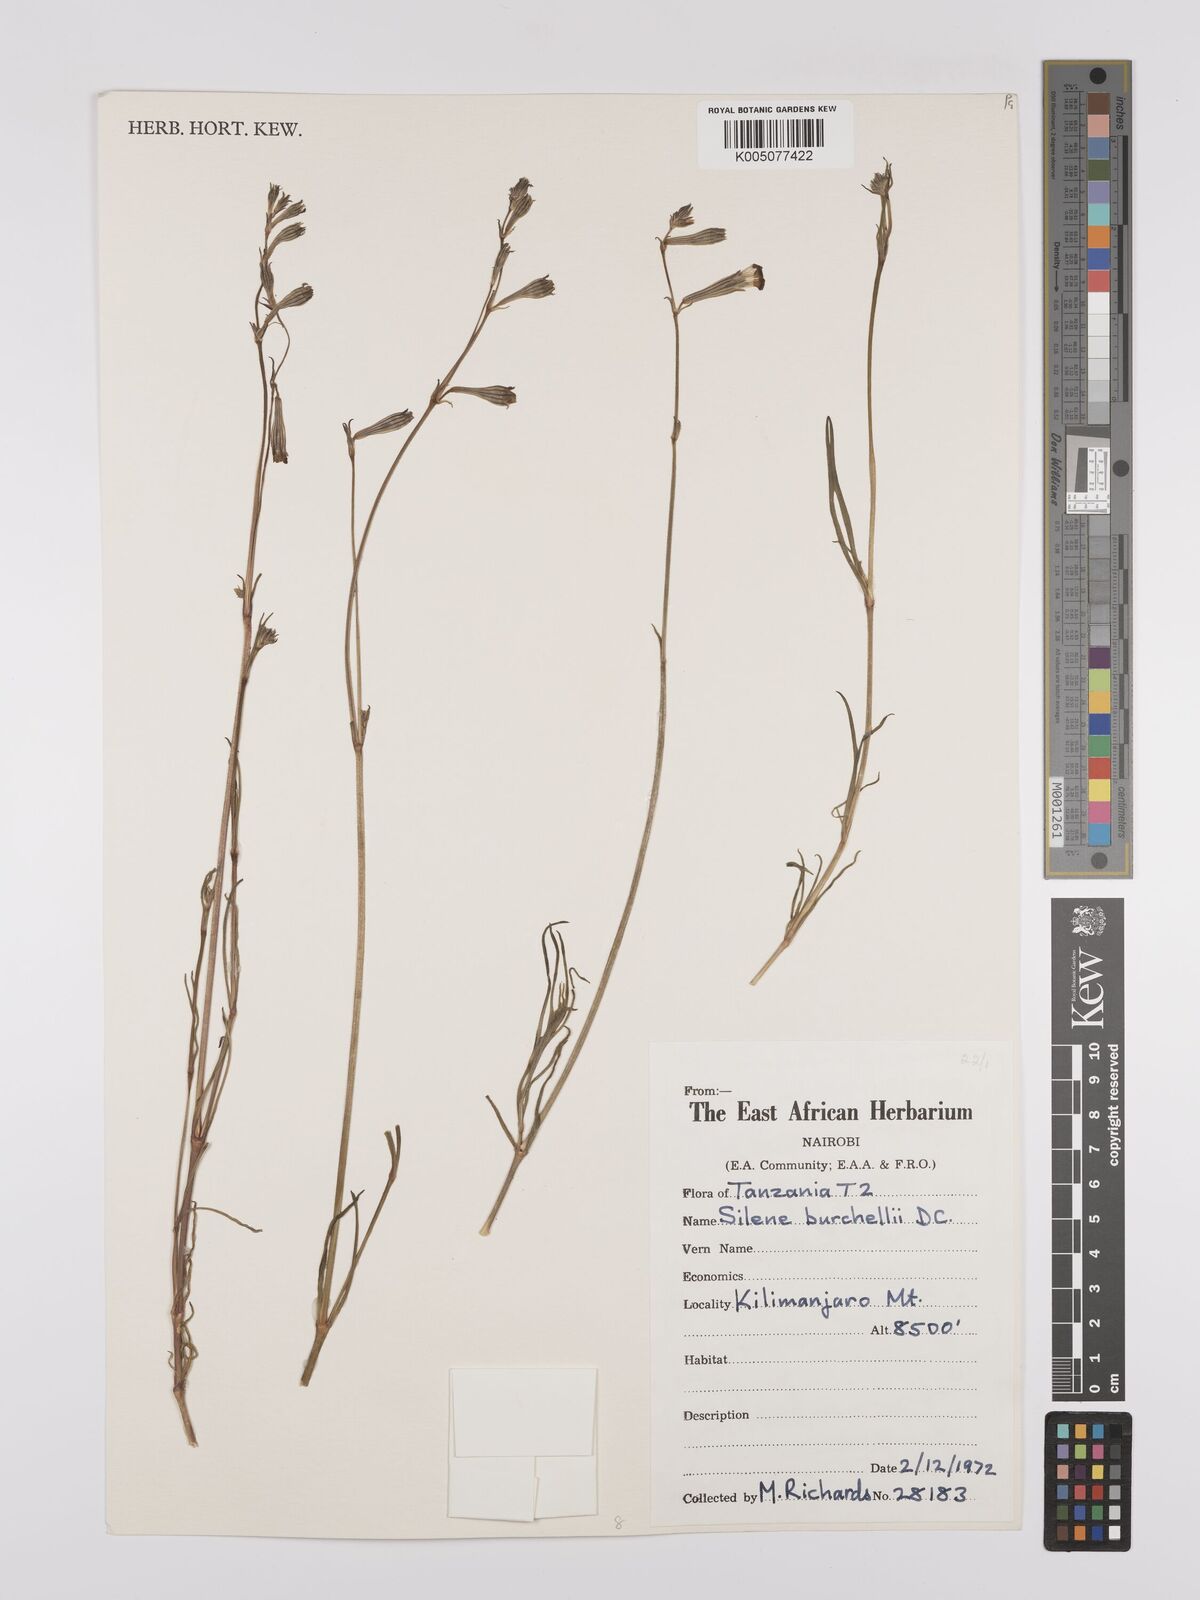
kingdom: Plantae
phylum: Tracheophyta
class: Magnoliopsida
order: Caryophyllales
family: Caryophyllaceae
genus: Silene
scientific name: Silene burchellii
